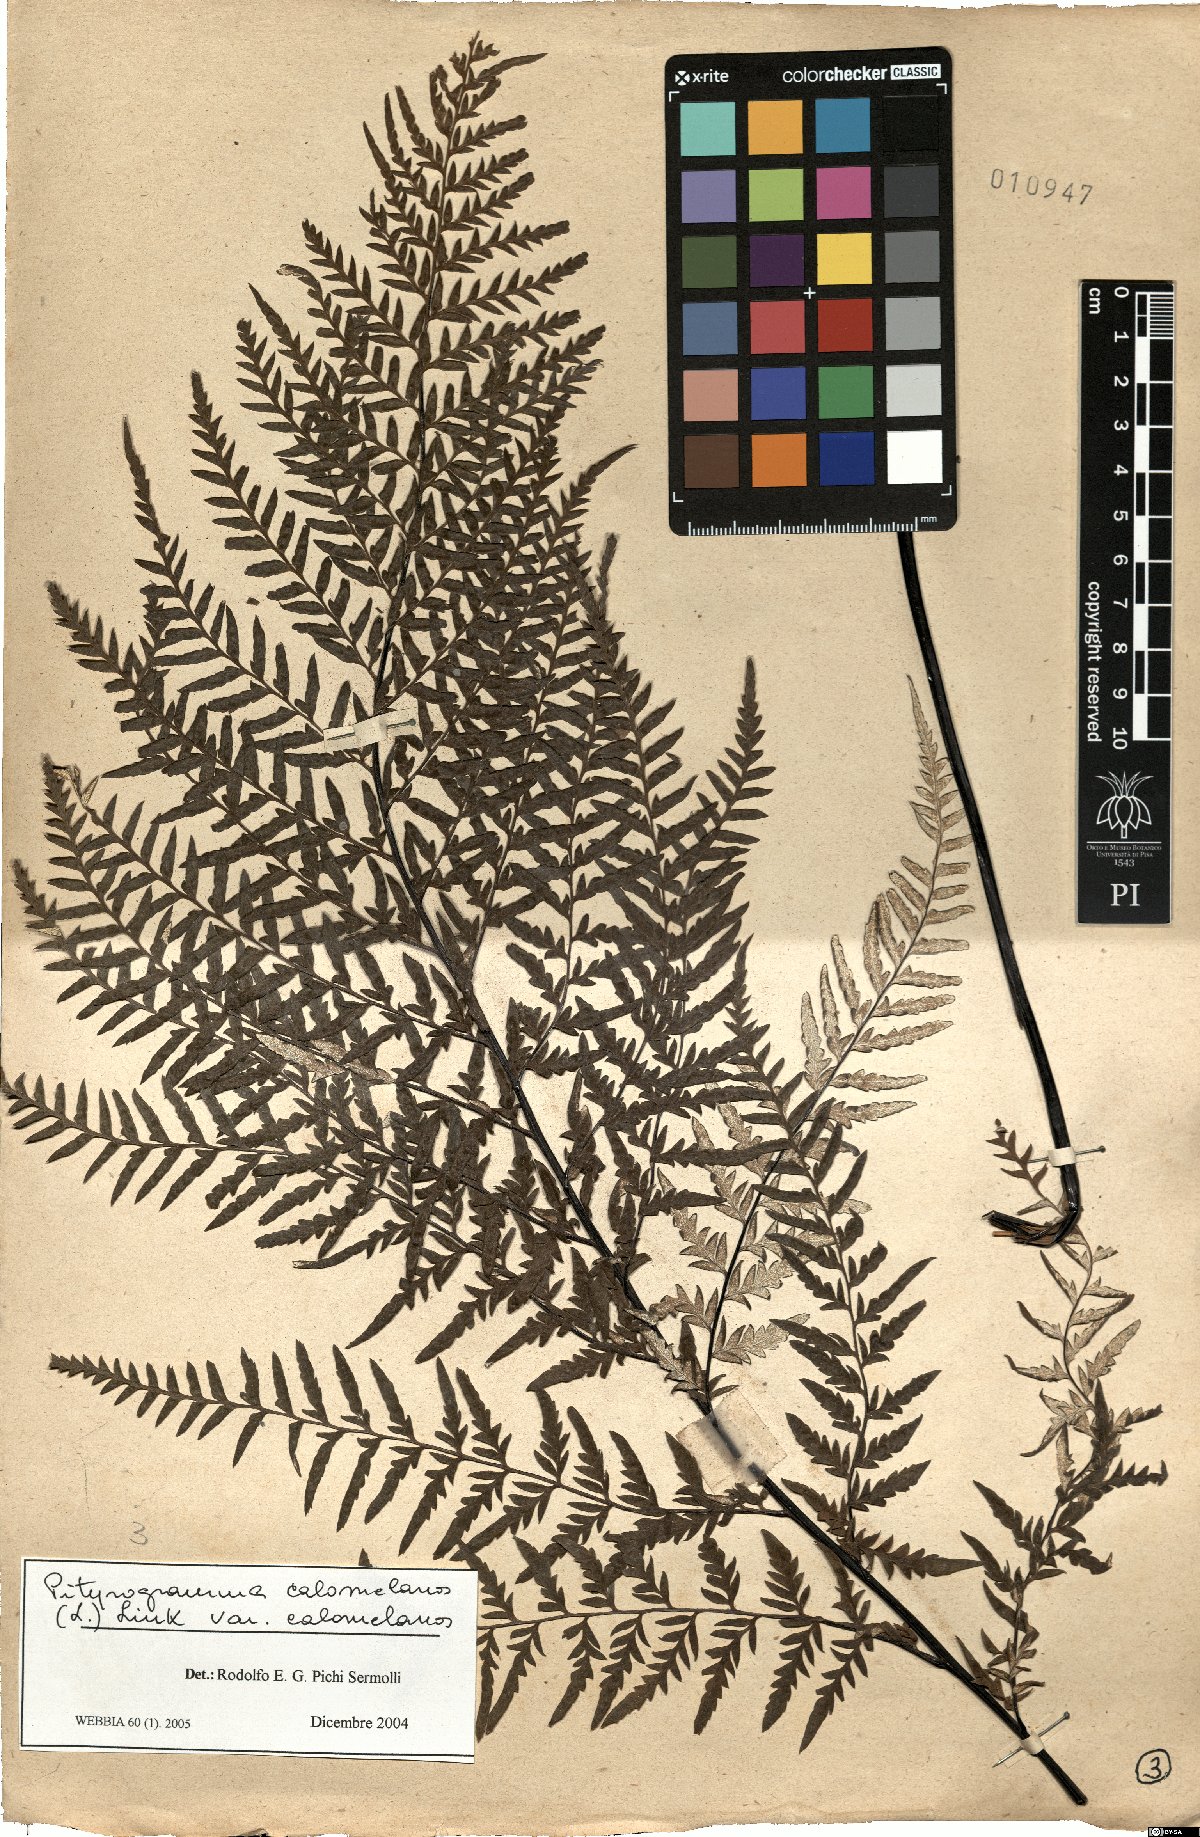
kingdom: Plantae
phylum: Tracheophyta
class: Polypodiopsida
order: Polypodiales
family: Pteridaceae
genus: Pityrogramma
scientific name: Pityrogramma calomelanos
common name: Dixie silverback fern
